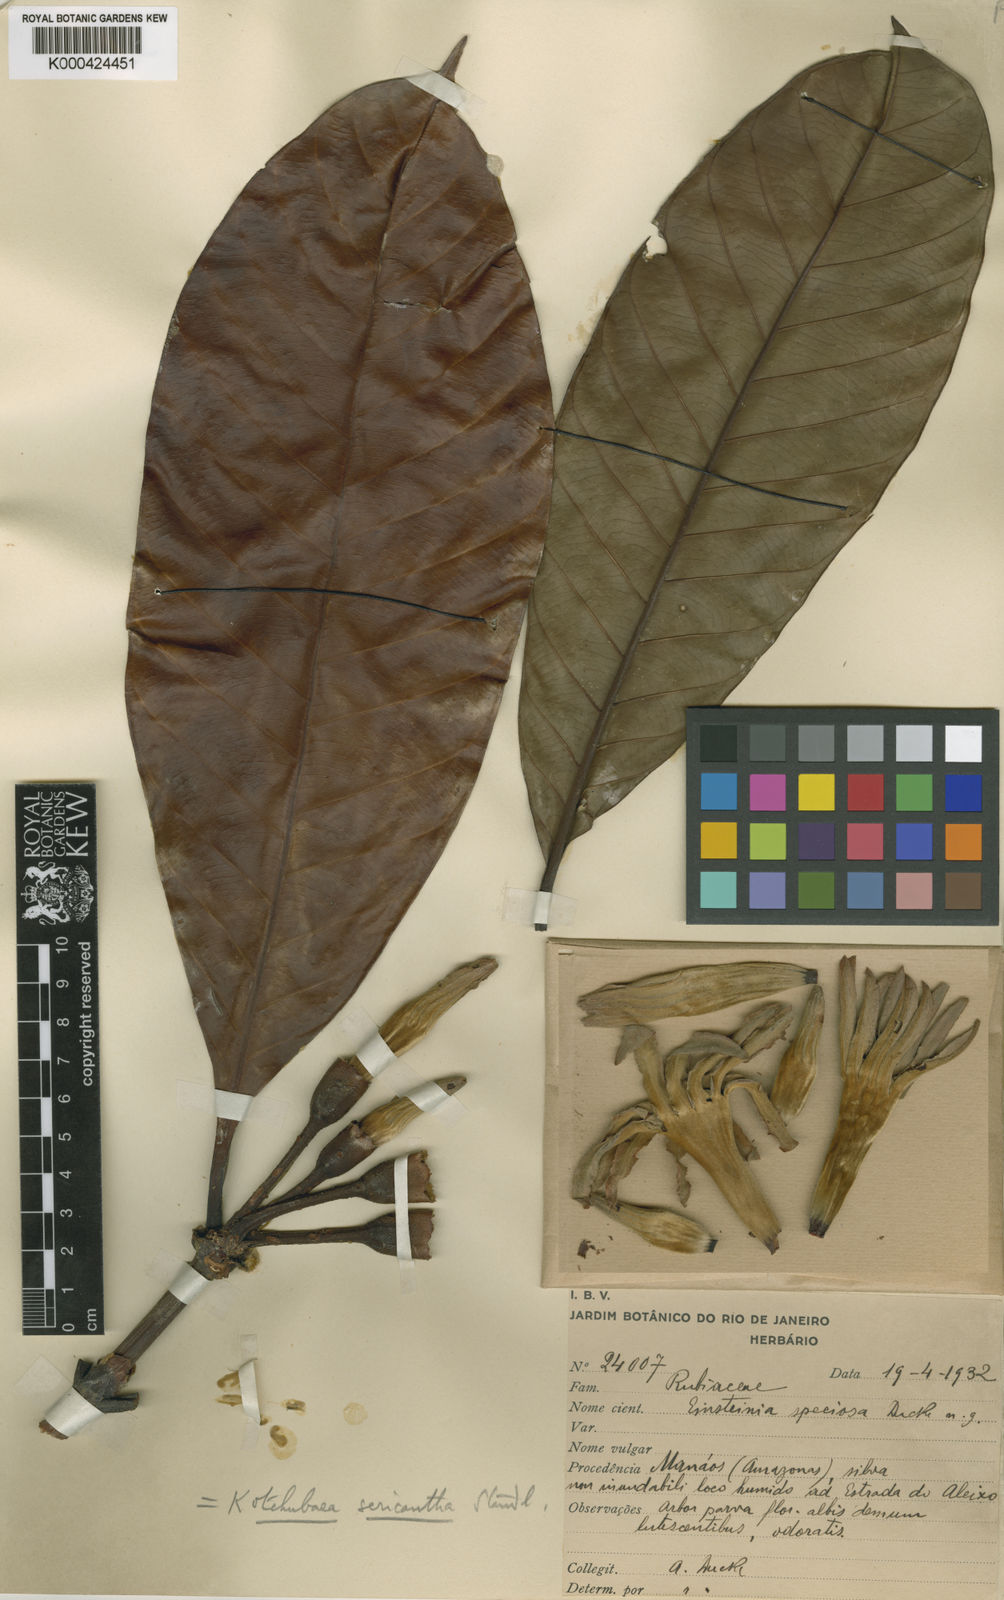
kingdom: Plantae
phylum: Tracheophyta
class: Magnoliopsida
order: Gentianales
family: Rubiaceae
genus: Kutchubaea
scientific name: Kutchubaea sericantha
